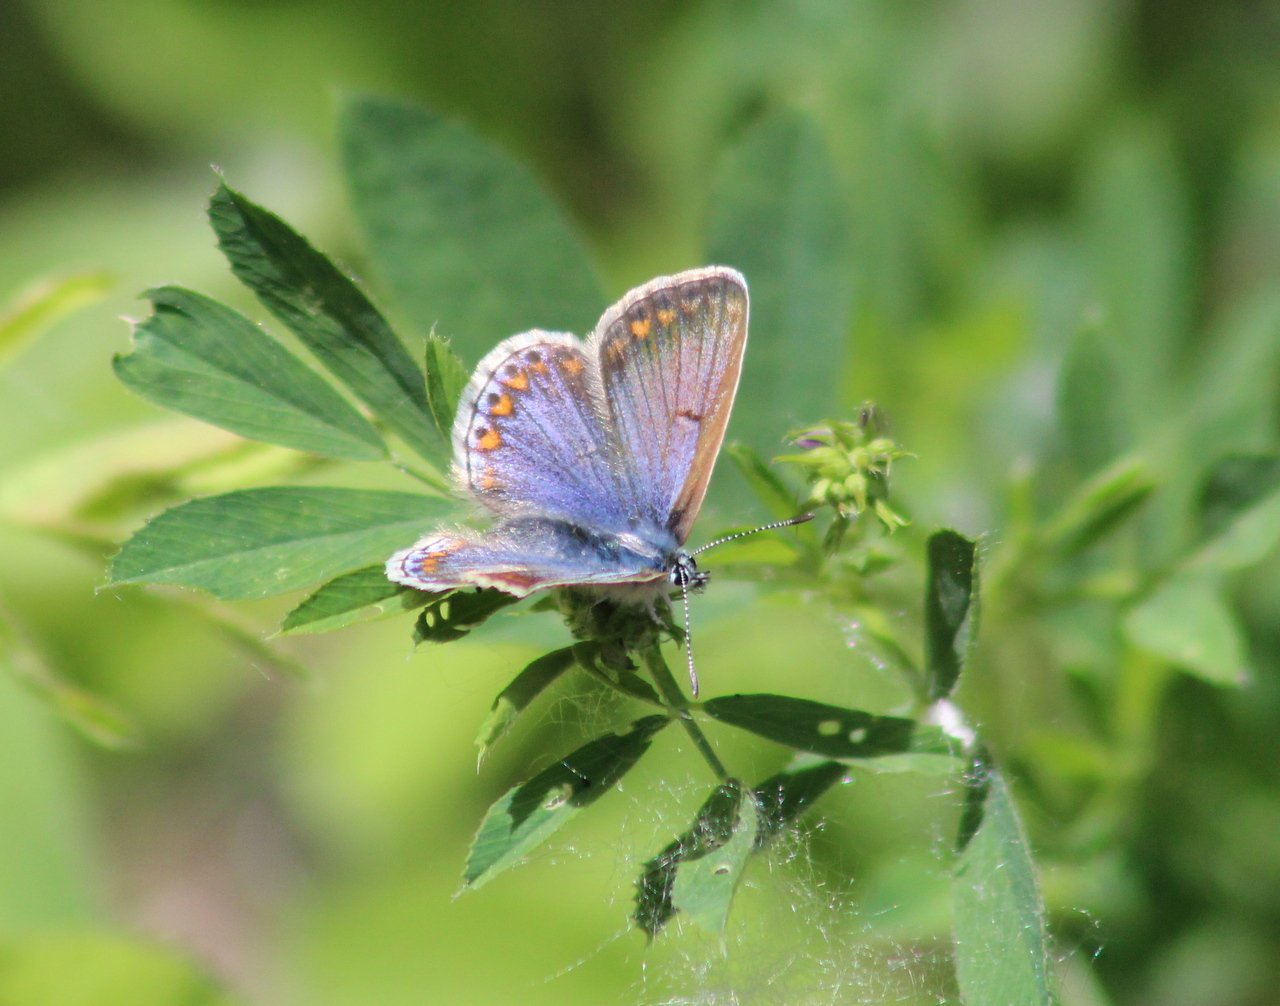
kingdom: Animalia
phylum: Arthropoda
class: Insecta
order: Lepidoptera
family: Lycaenidae
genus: Polyommatus
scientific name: Polyommatus icarus
